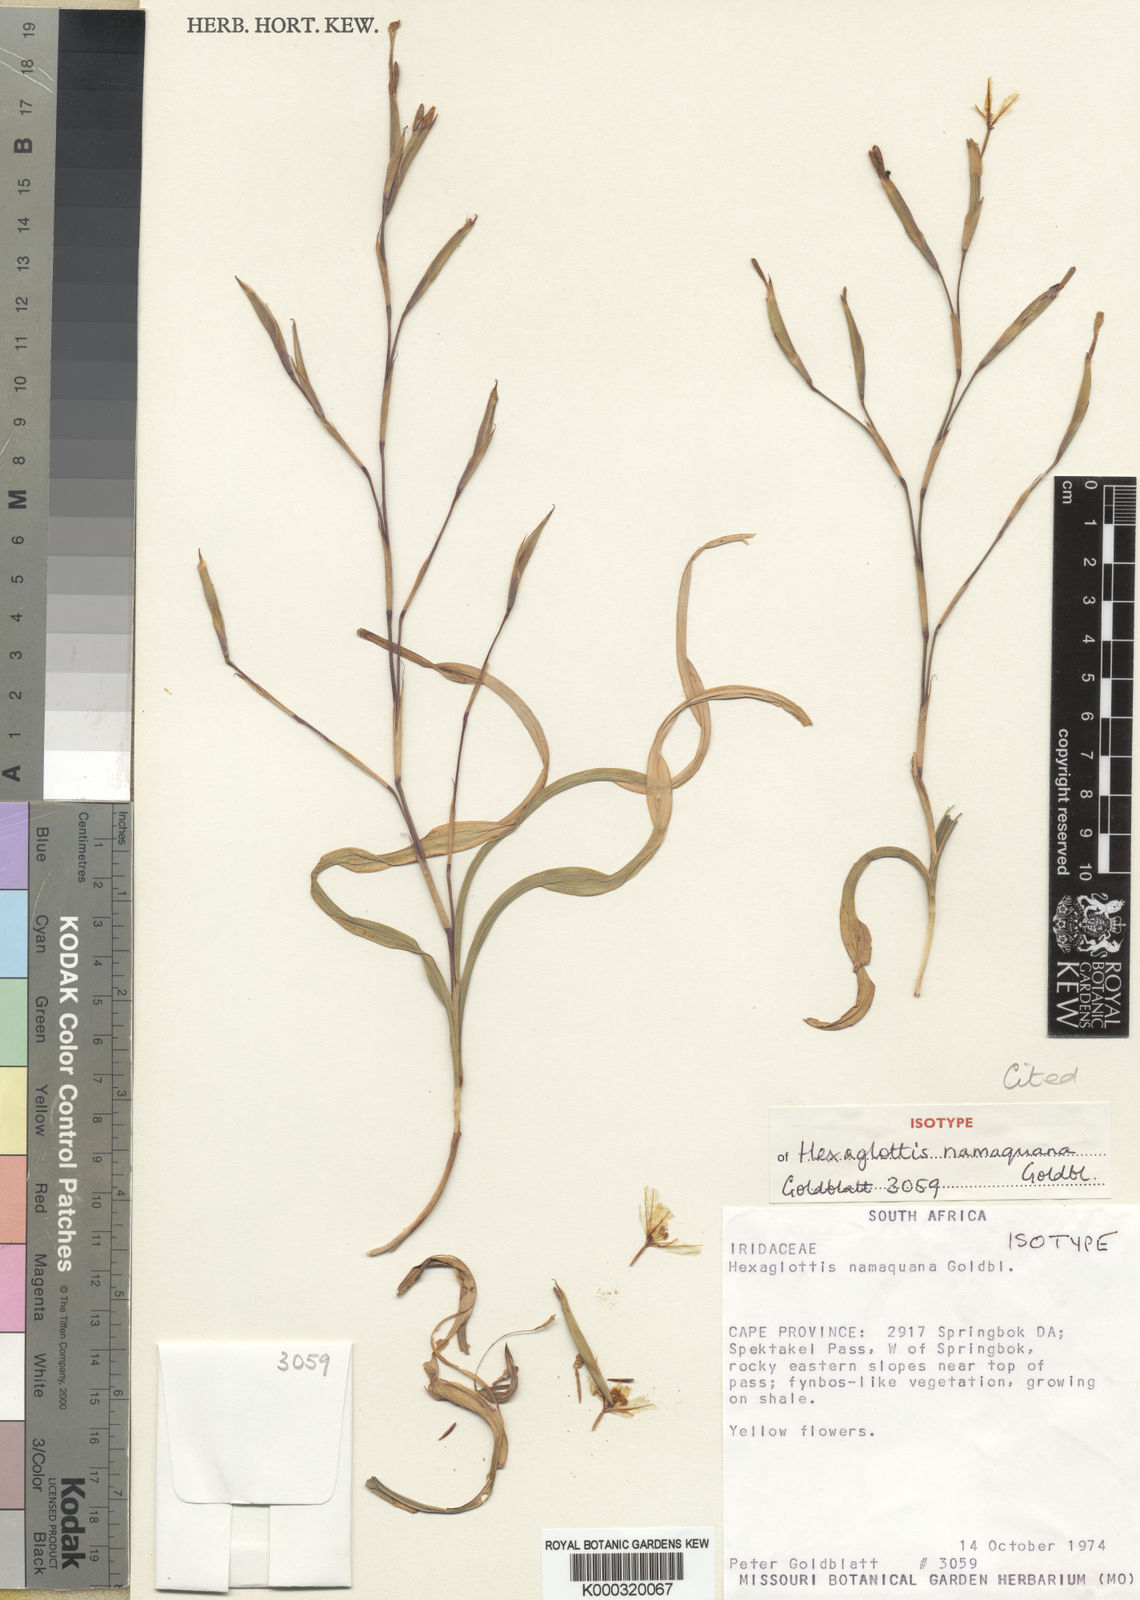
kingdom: Plantae
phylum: Tracheophyta
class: Liliopsida
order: Asparagales
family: Iridaceae
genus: Moraea
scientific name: Moraea namaquana
